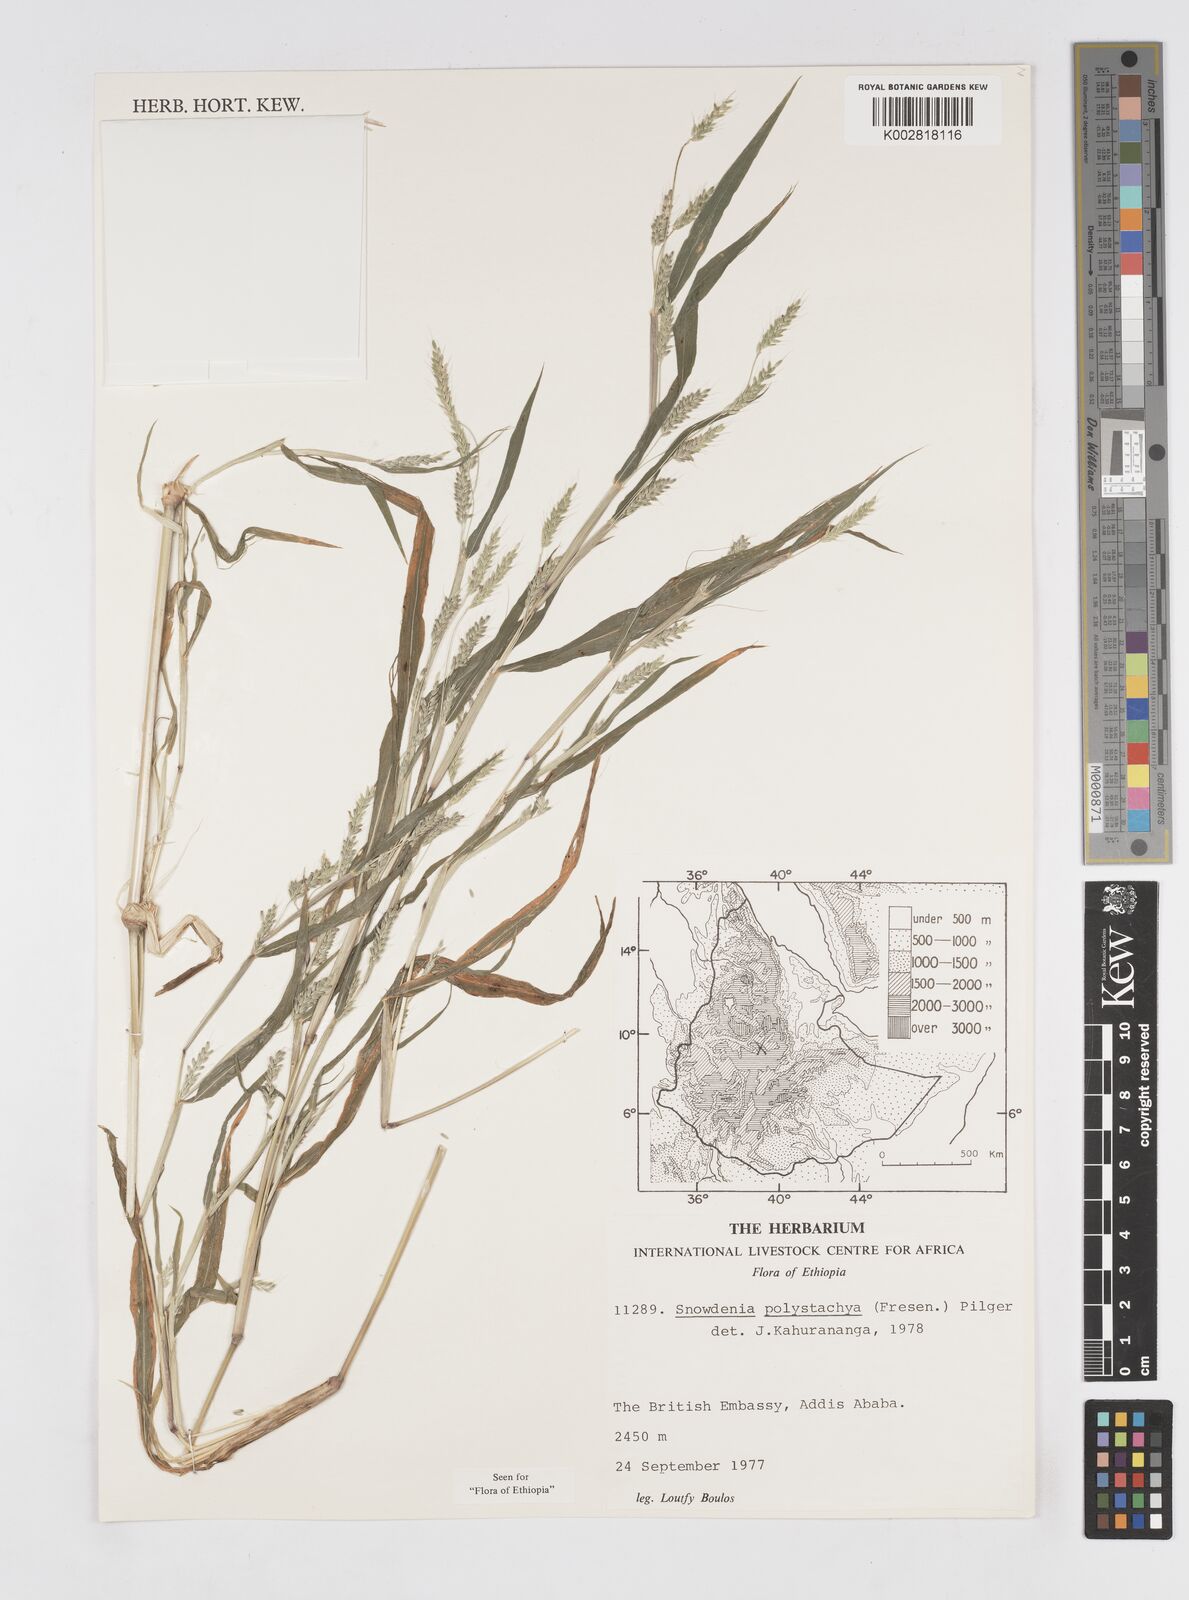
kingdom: Plantae
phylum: Tracheophyta
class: Liliopsida
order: Poales
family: Poaceae
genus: Snowdenia
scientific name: Snowdenia polystachya
